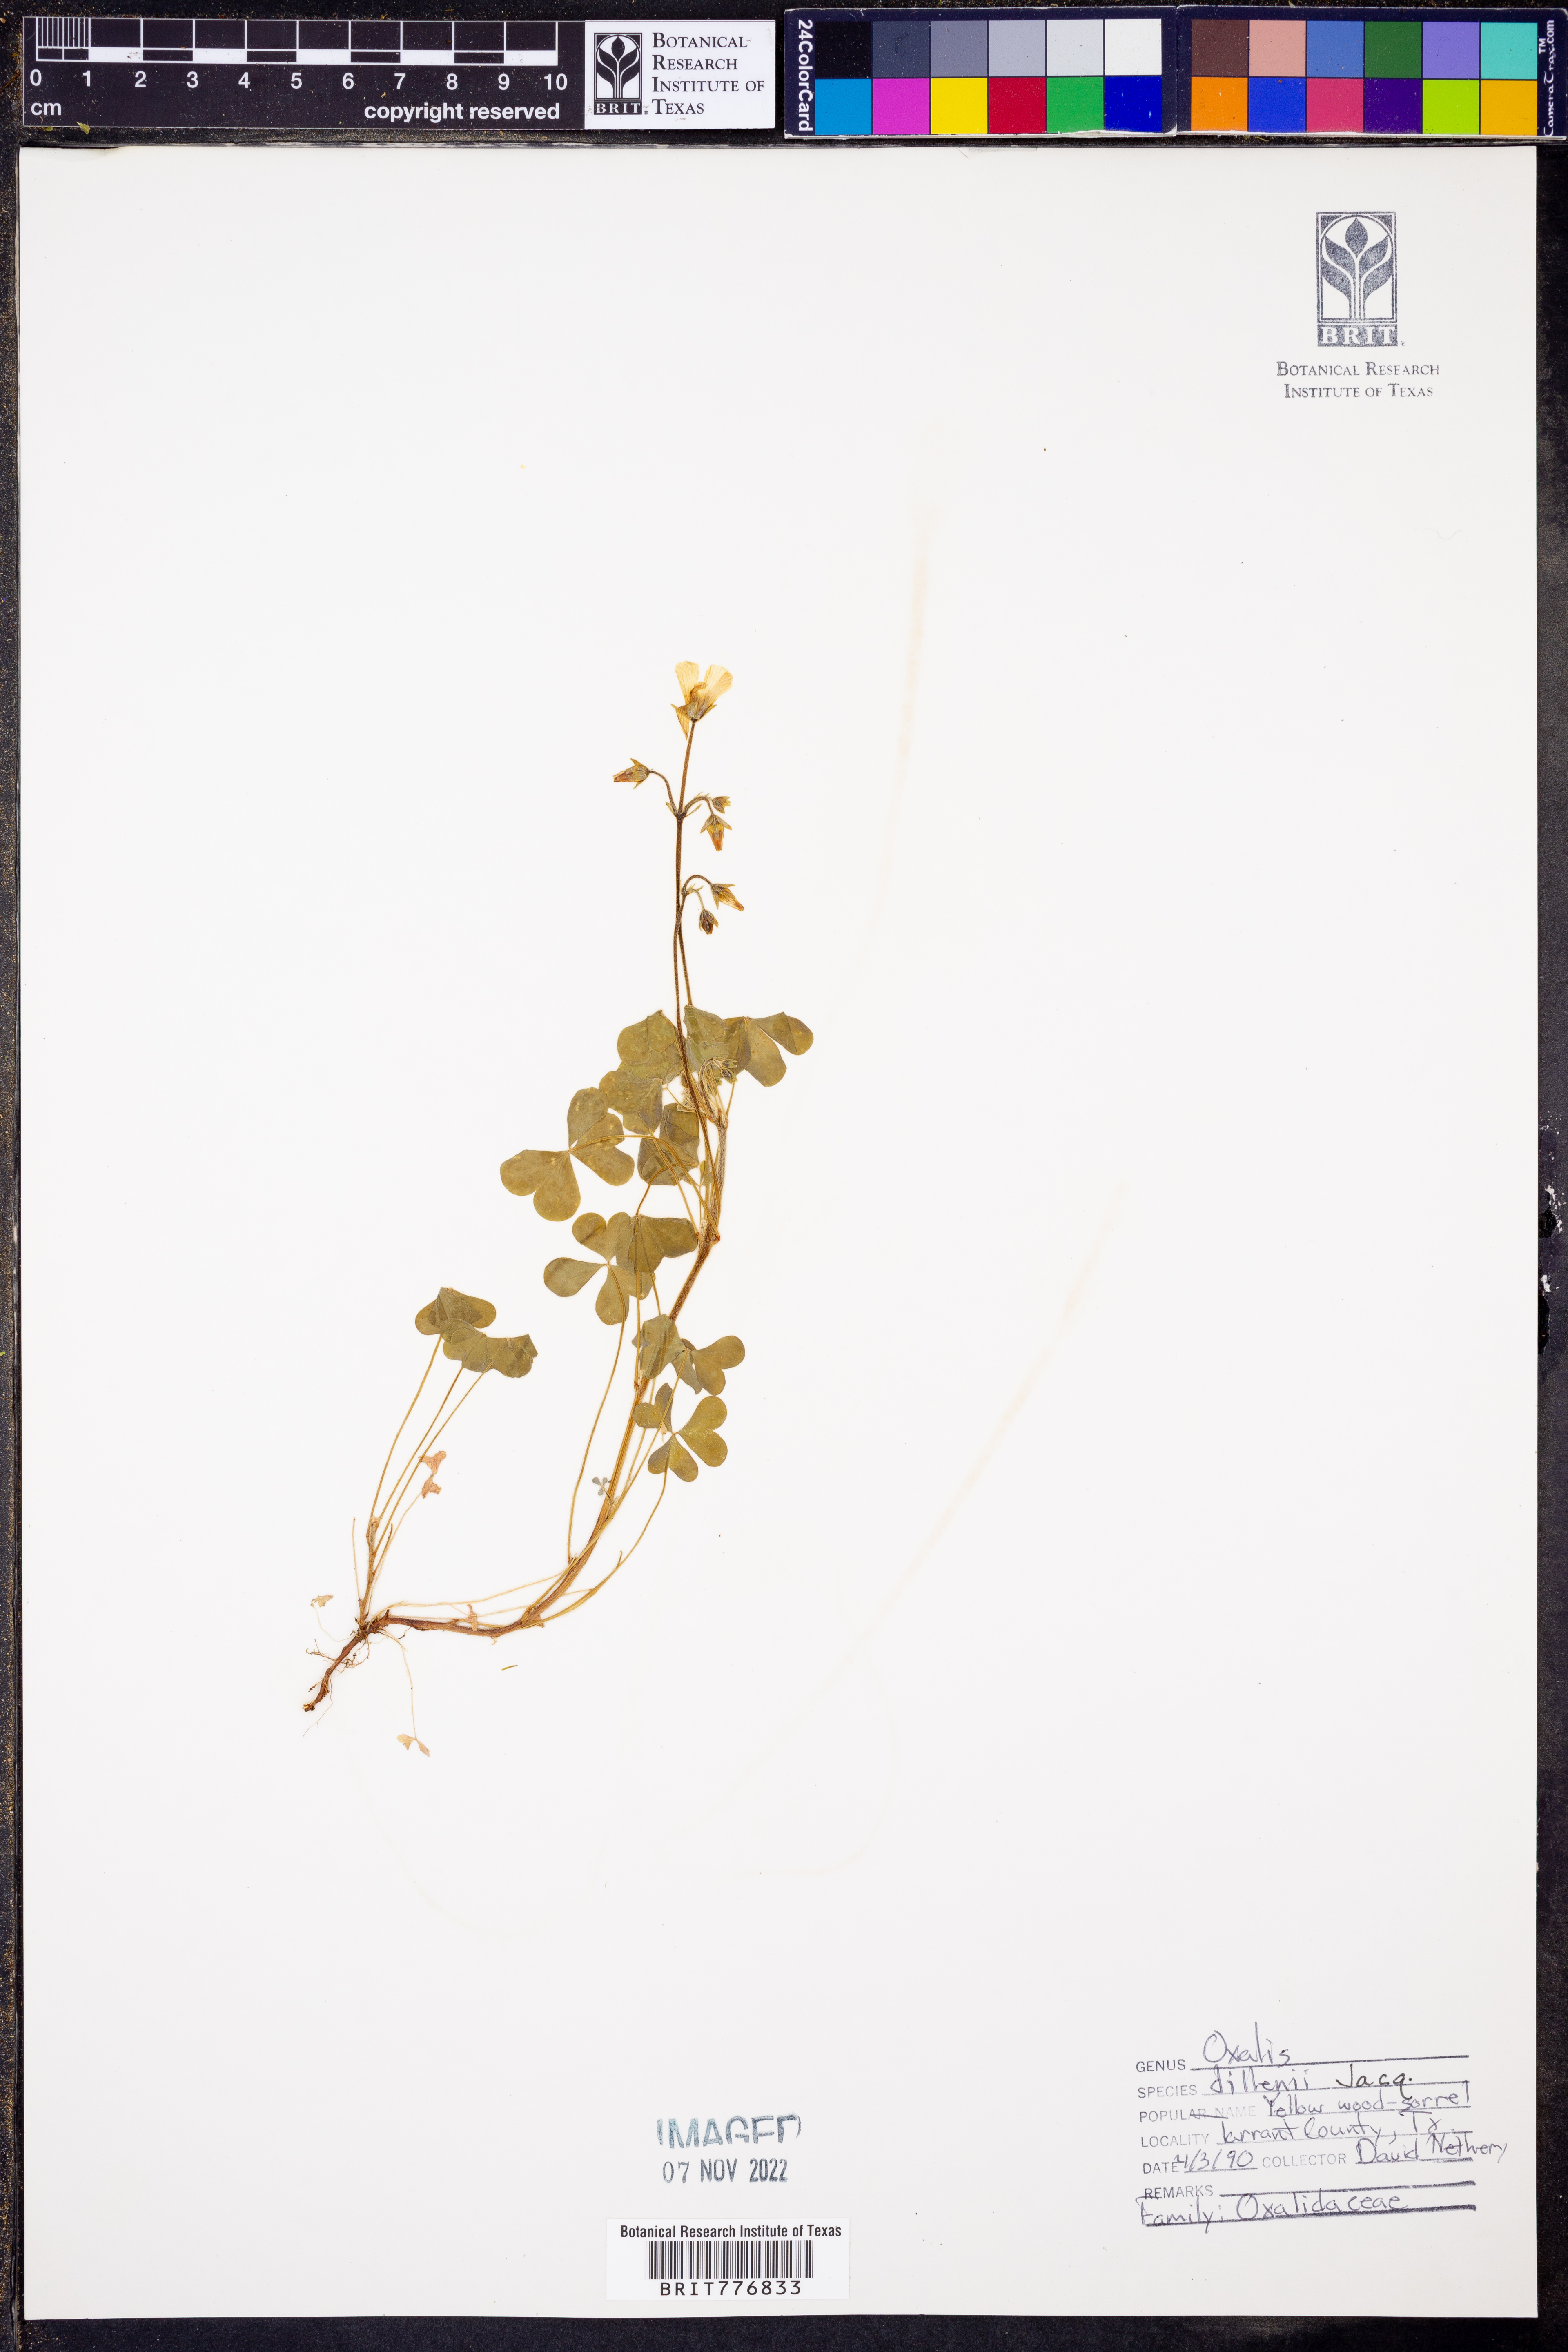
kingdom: Plantae
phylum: Tracheophyta
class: Magnoliopsida
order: Oxalidales
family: Oxalidaceae
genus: Oxalis
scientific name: Oxalis dillenii
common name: Sussex yellow-sorrel
